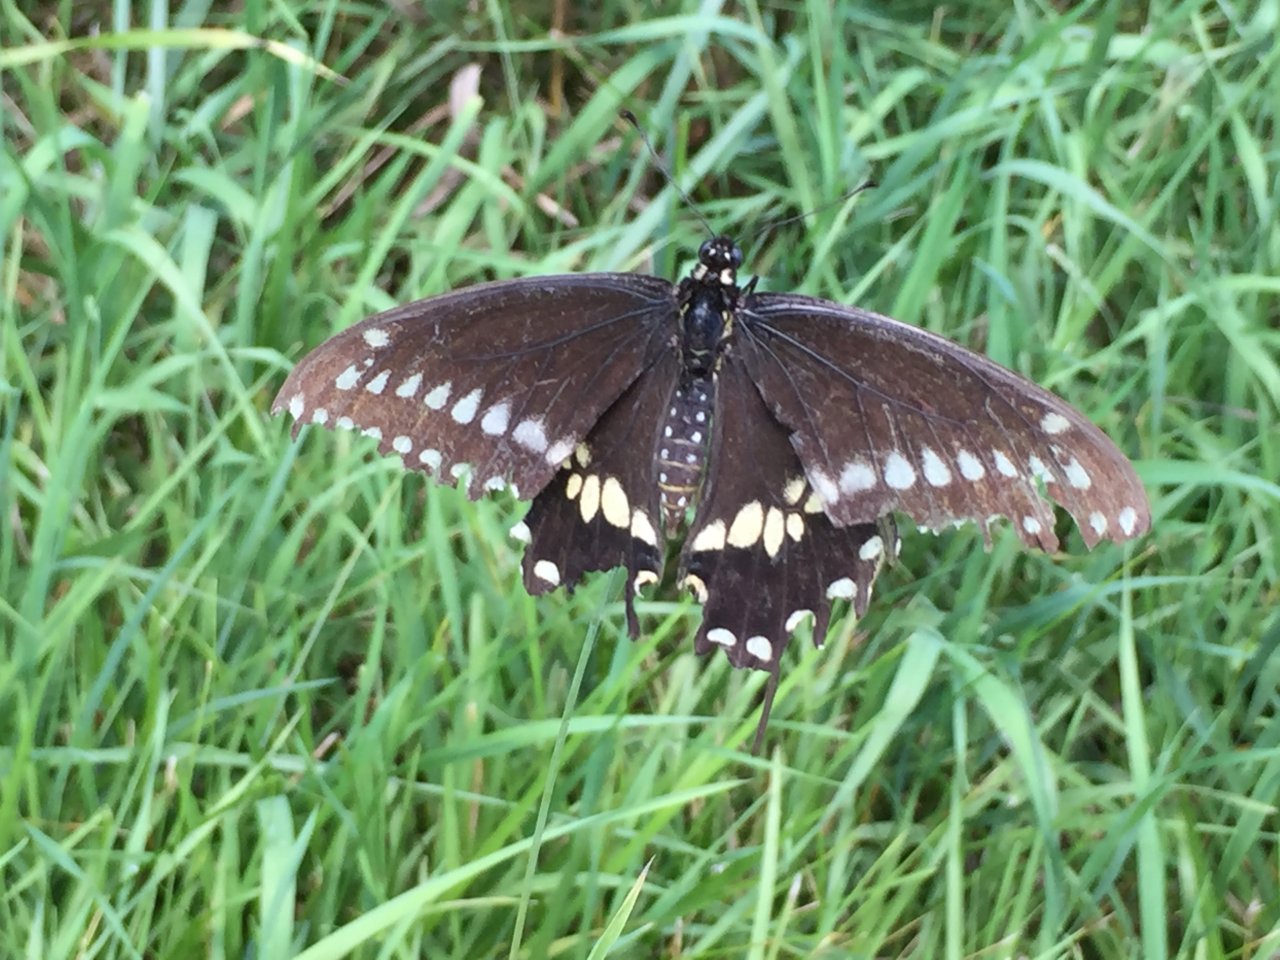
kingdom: Animalia
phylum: Arthropoda
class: Insecta
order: Lepidoptera
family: Papilionidae
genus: Papilio
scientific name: Papilio polyxenes
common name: Black Swallowtail
